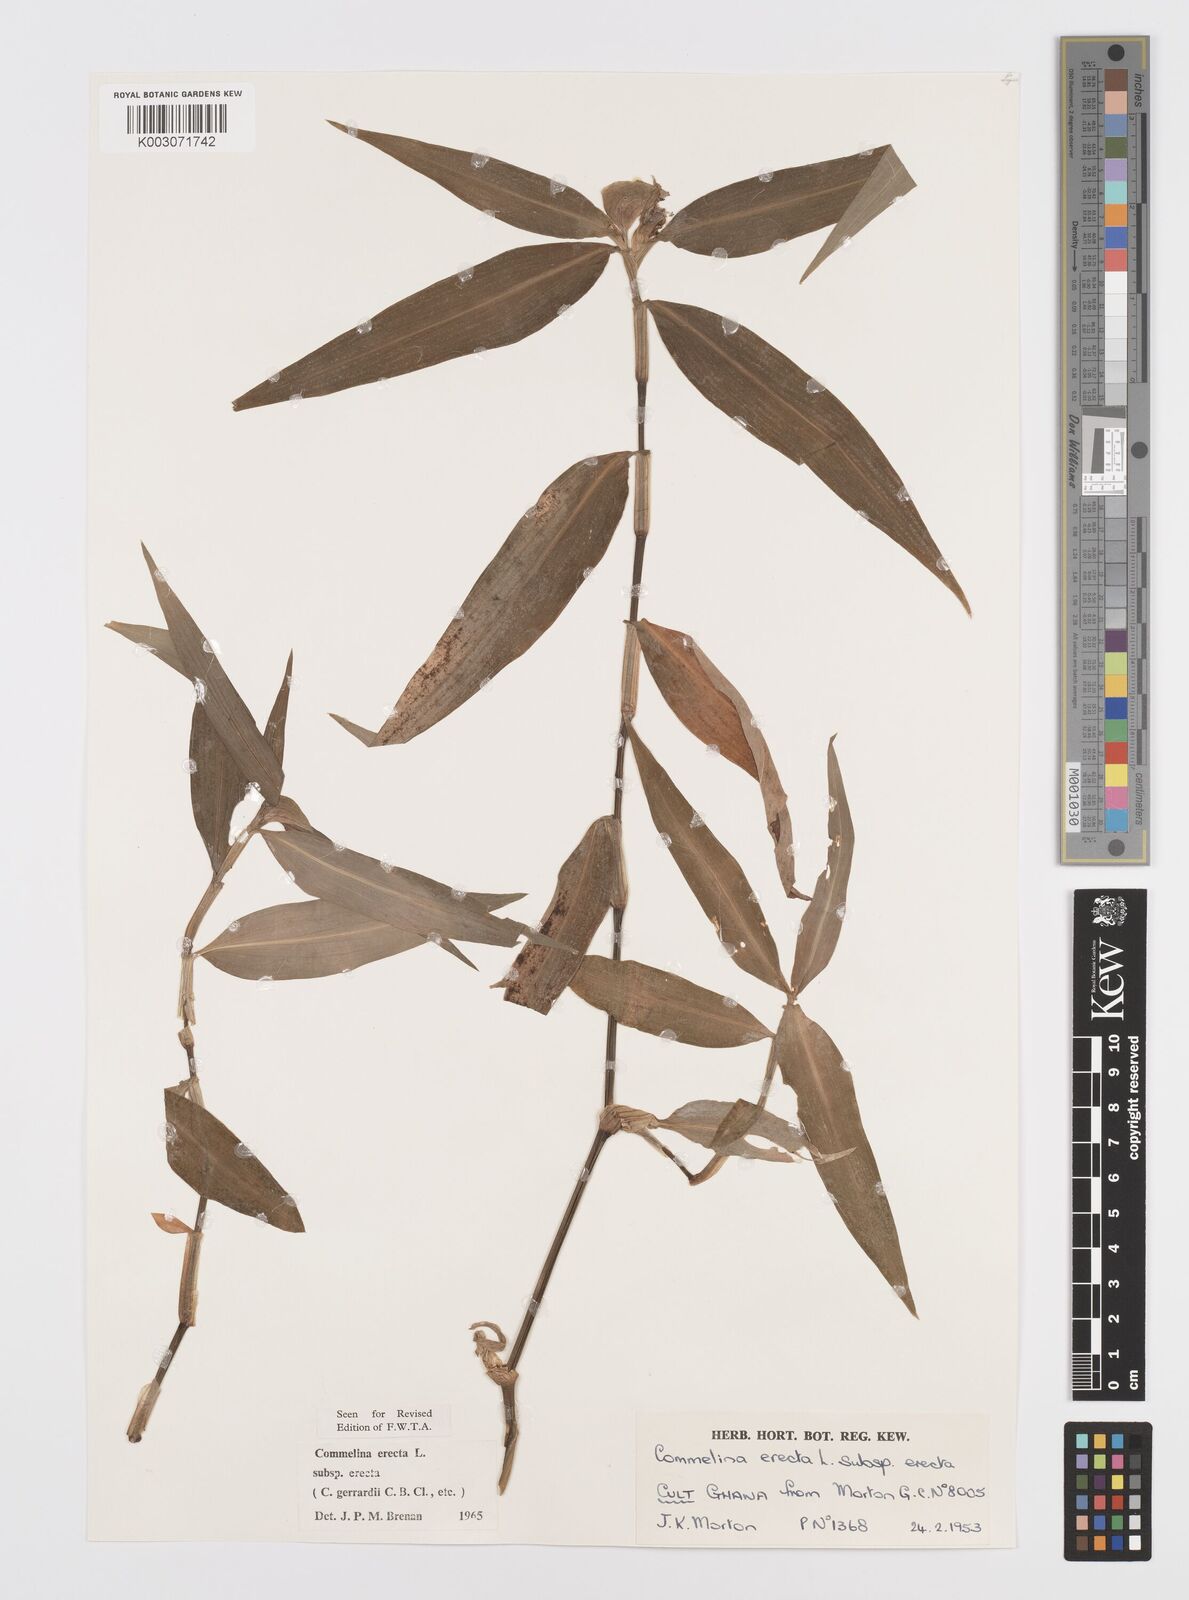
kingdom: Plantae
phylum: Tracheophyta
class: Liliopsida
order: Commelinales
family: Commelinaceae
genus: Commelina
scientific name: Commelina erecta
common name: Blousel blommetjie
